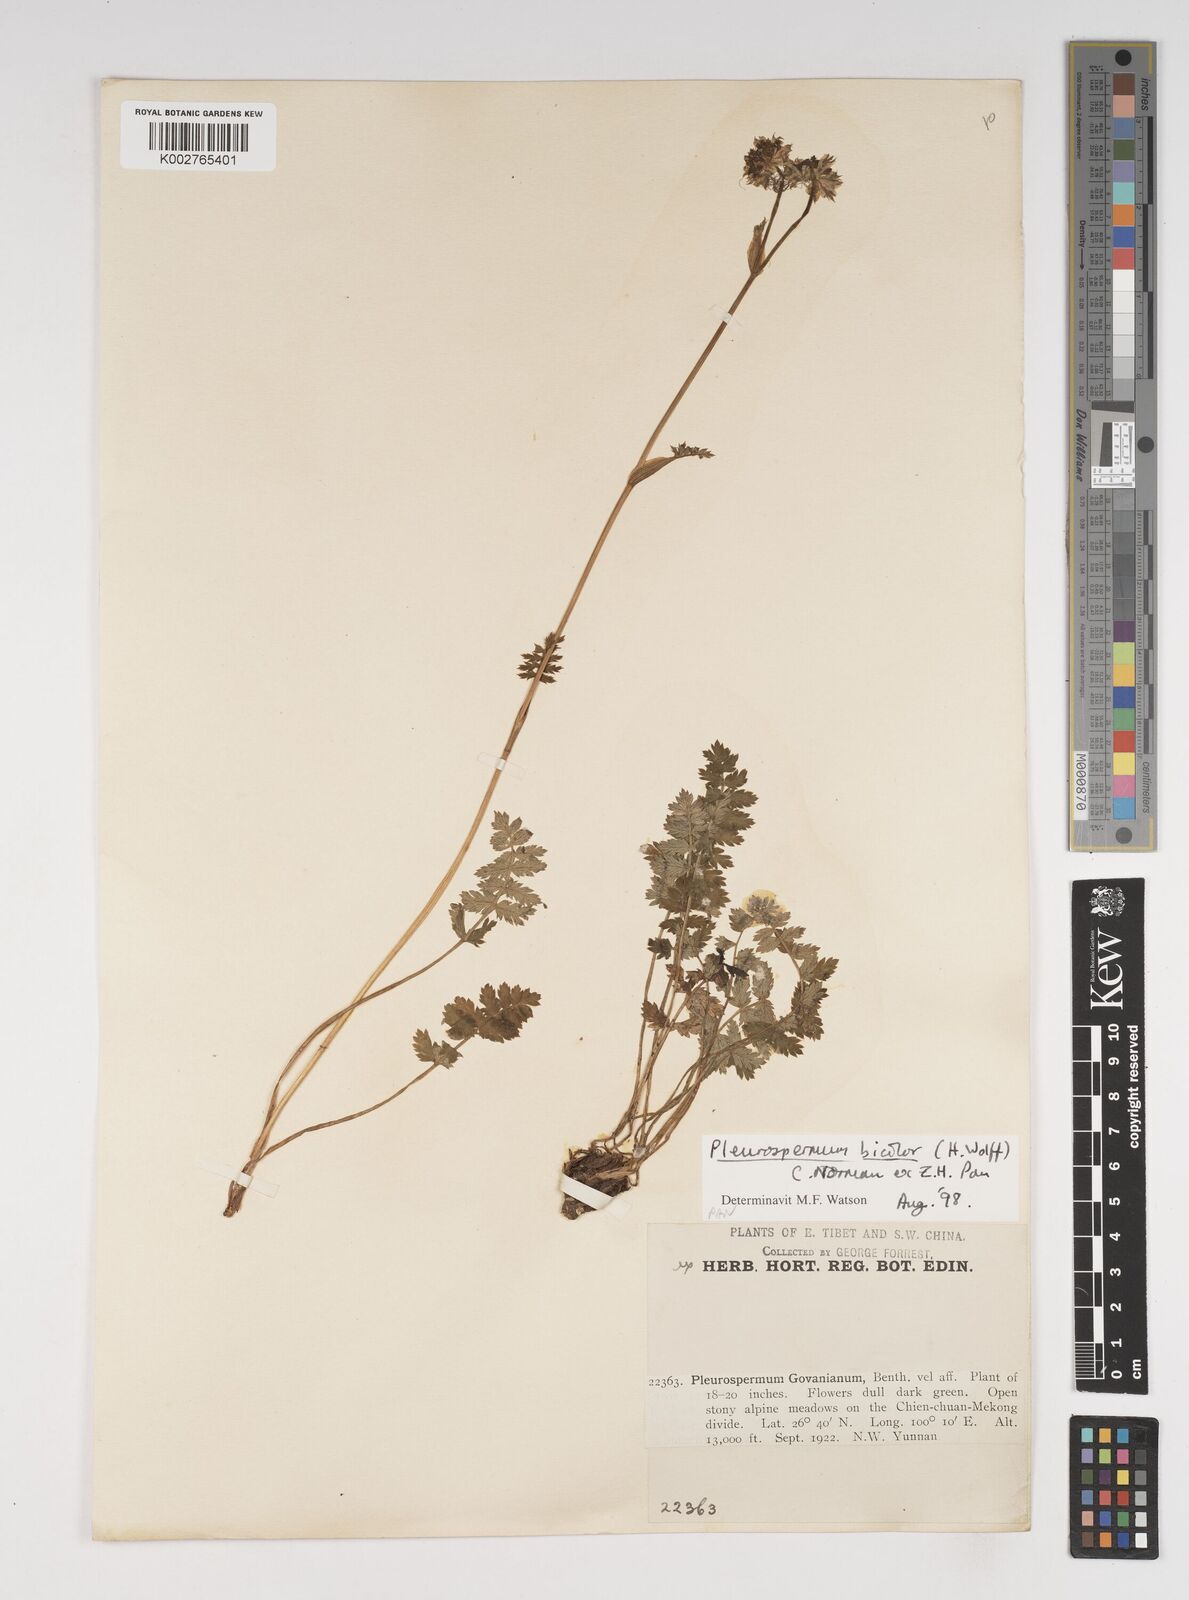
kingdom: Plantae
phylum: Tracheophyta
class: Magnoliopsida
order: Apiales
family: Apiaceae
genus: Pleurospermopsis
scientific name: Pleurospermopsis bicolor
